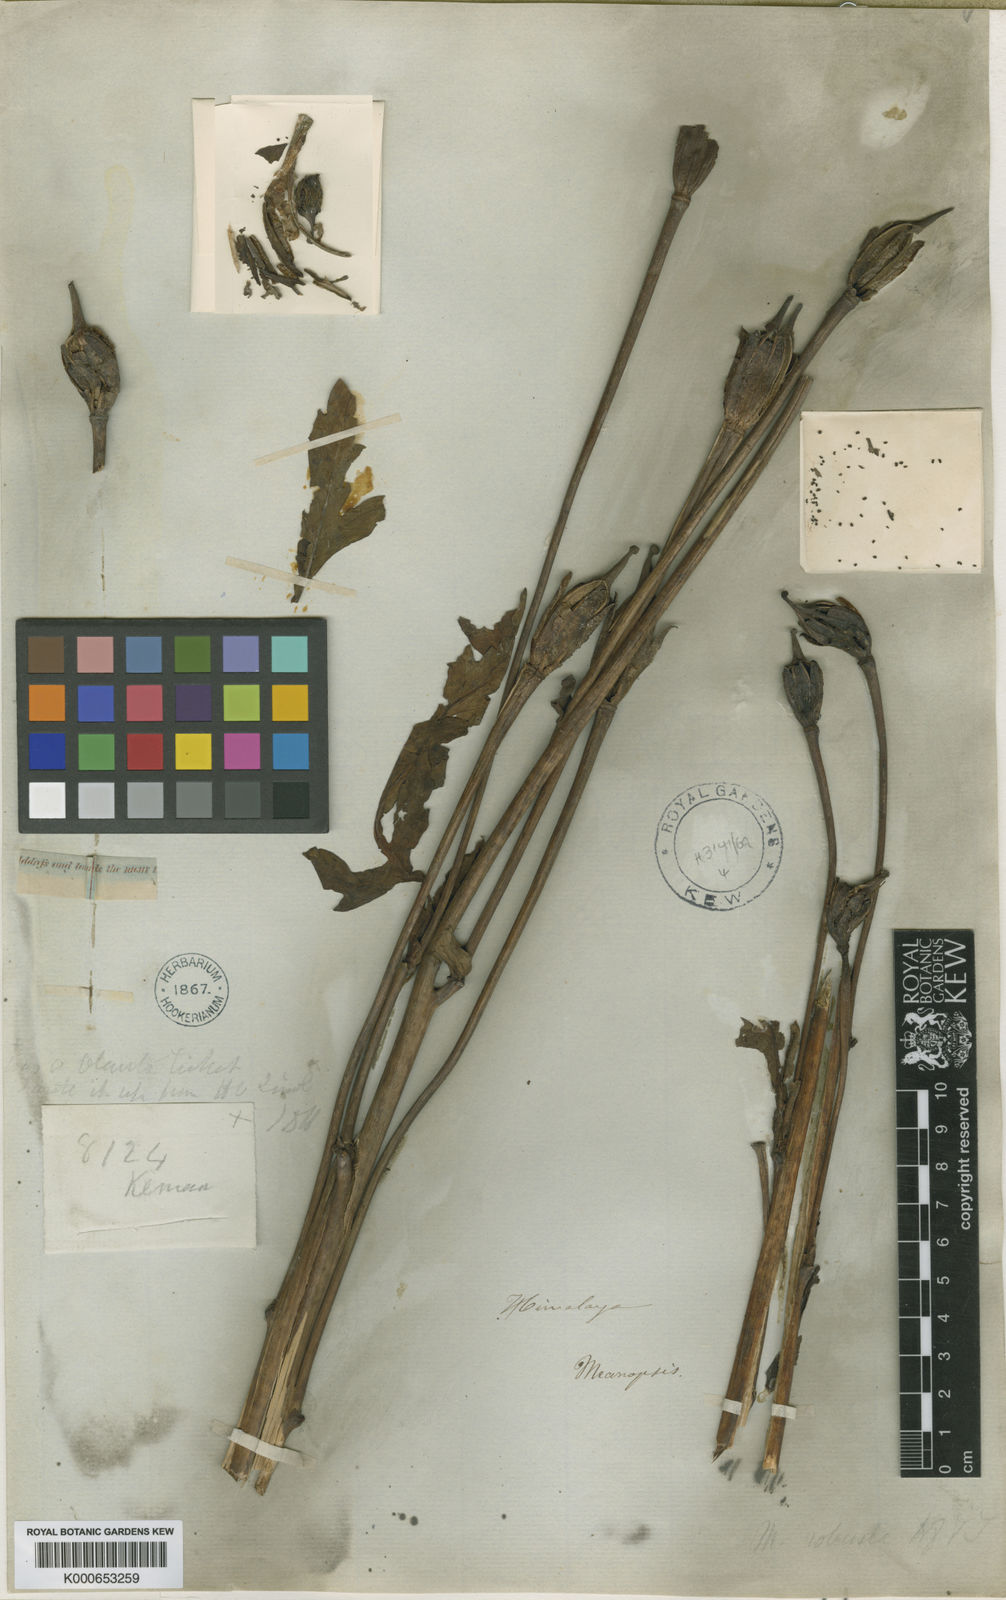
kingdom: Plantae
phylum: Tracheophyta
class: Magnoliopsida
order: Ranunculales
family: Papaveraceae
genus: Meconopsis
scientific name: Meconopsis robusta
